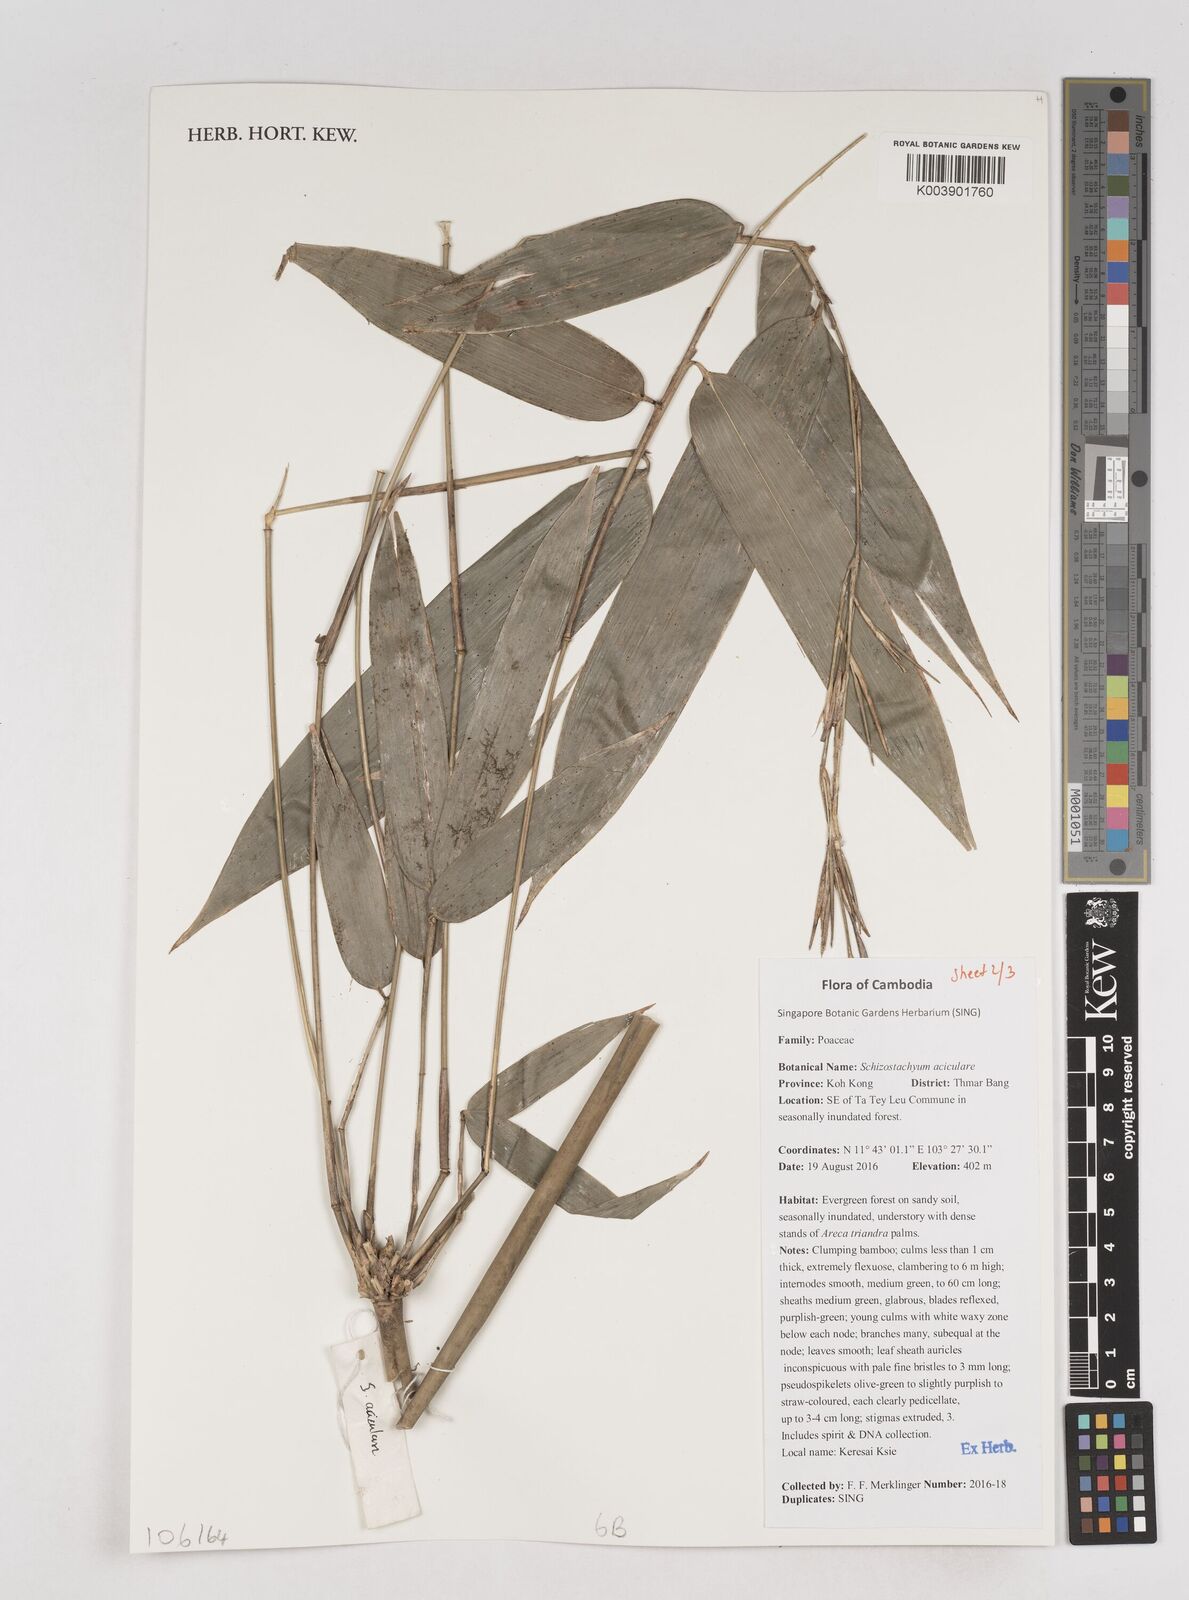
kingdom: Plantae
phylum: Tracheophyta
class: Liliopsida
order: Poales
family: Poaceae
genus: Schizostachyum
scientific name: Schizostachyum aciculare
